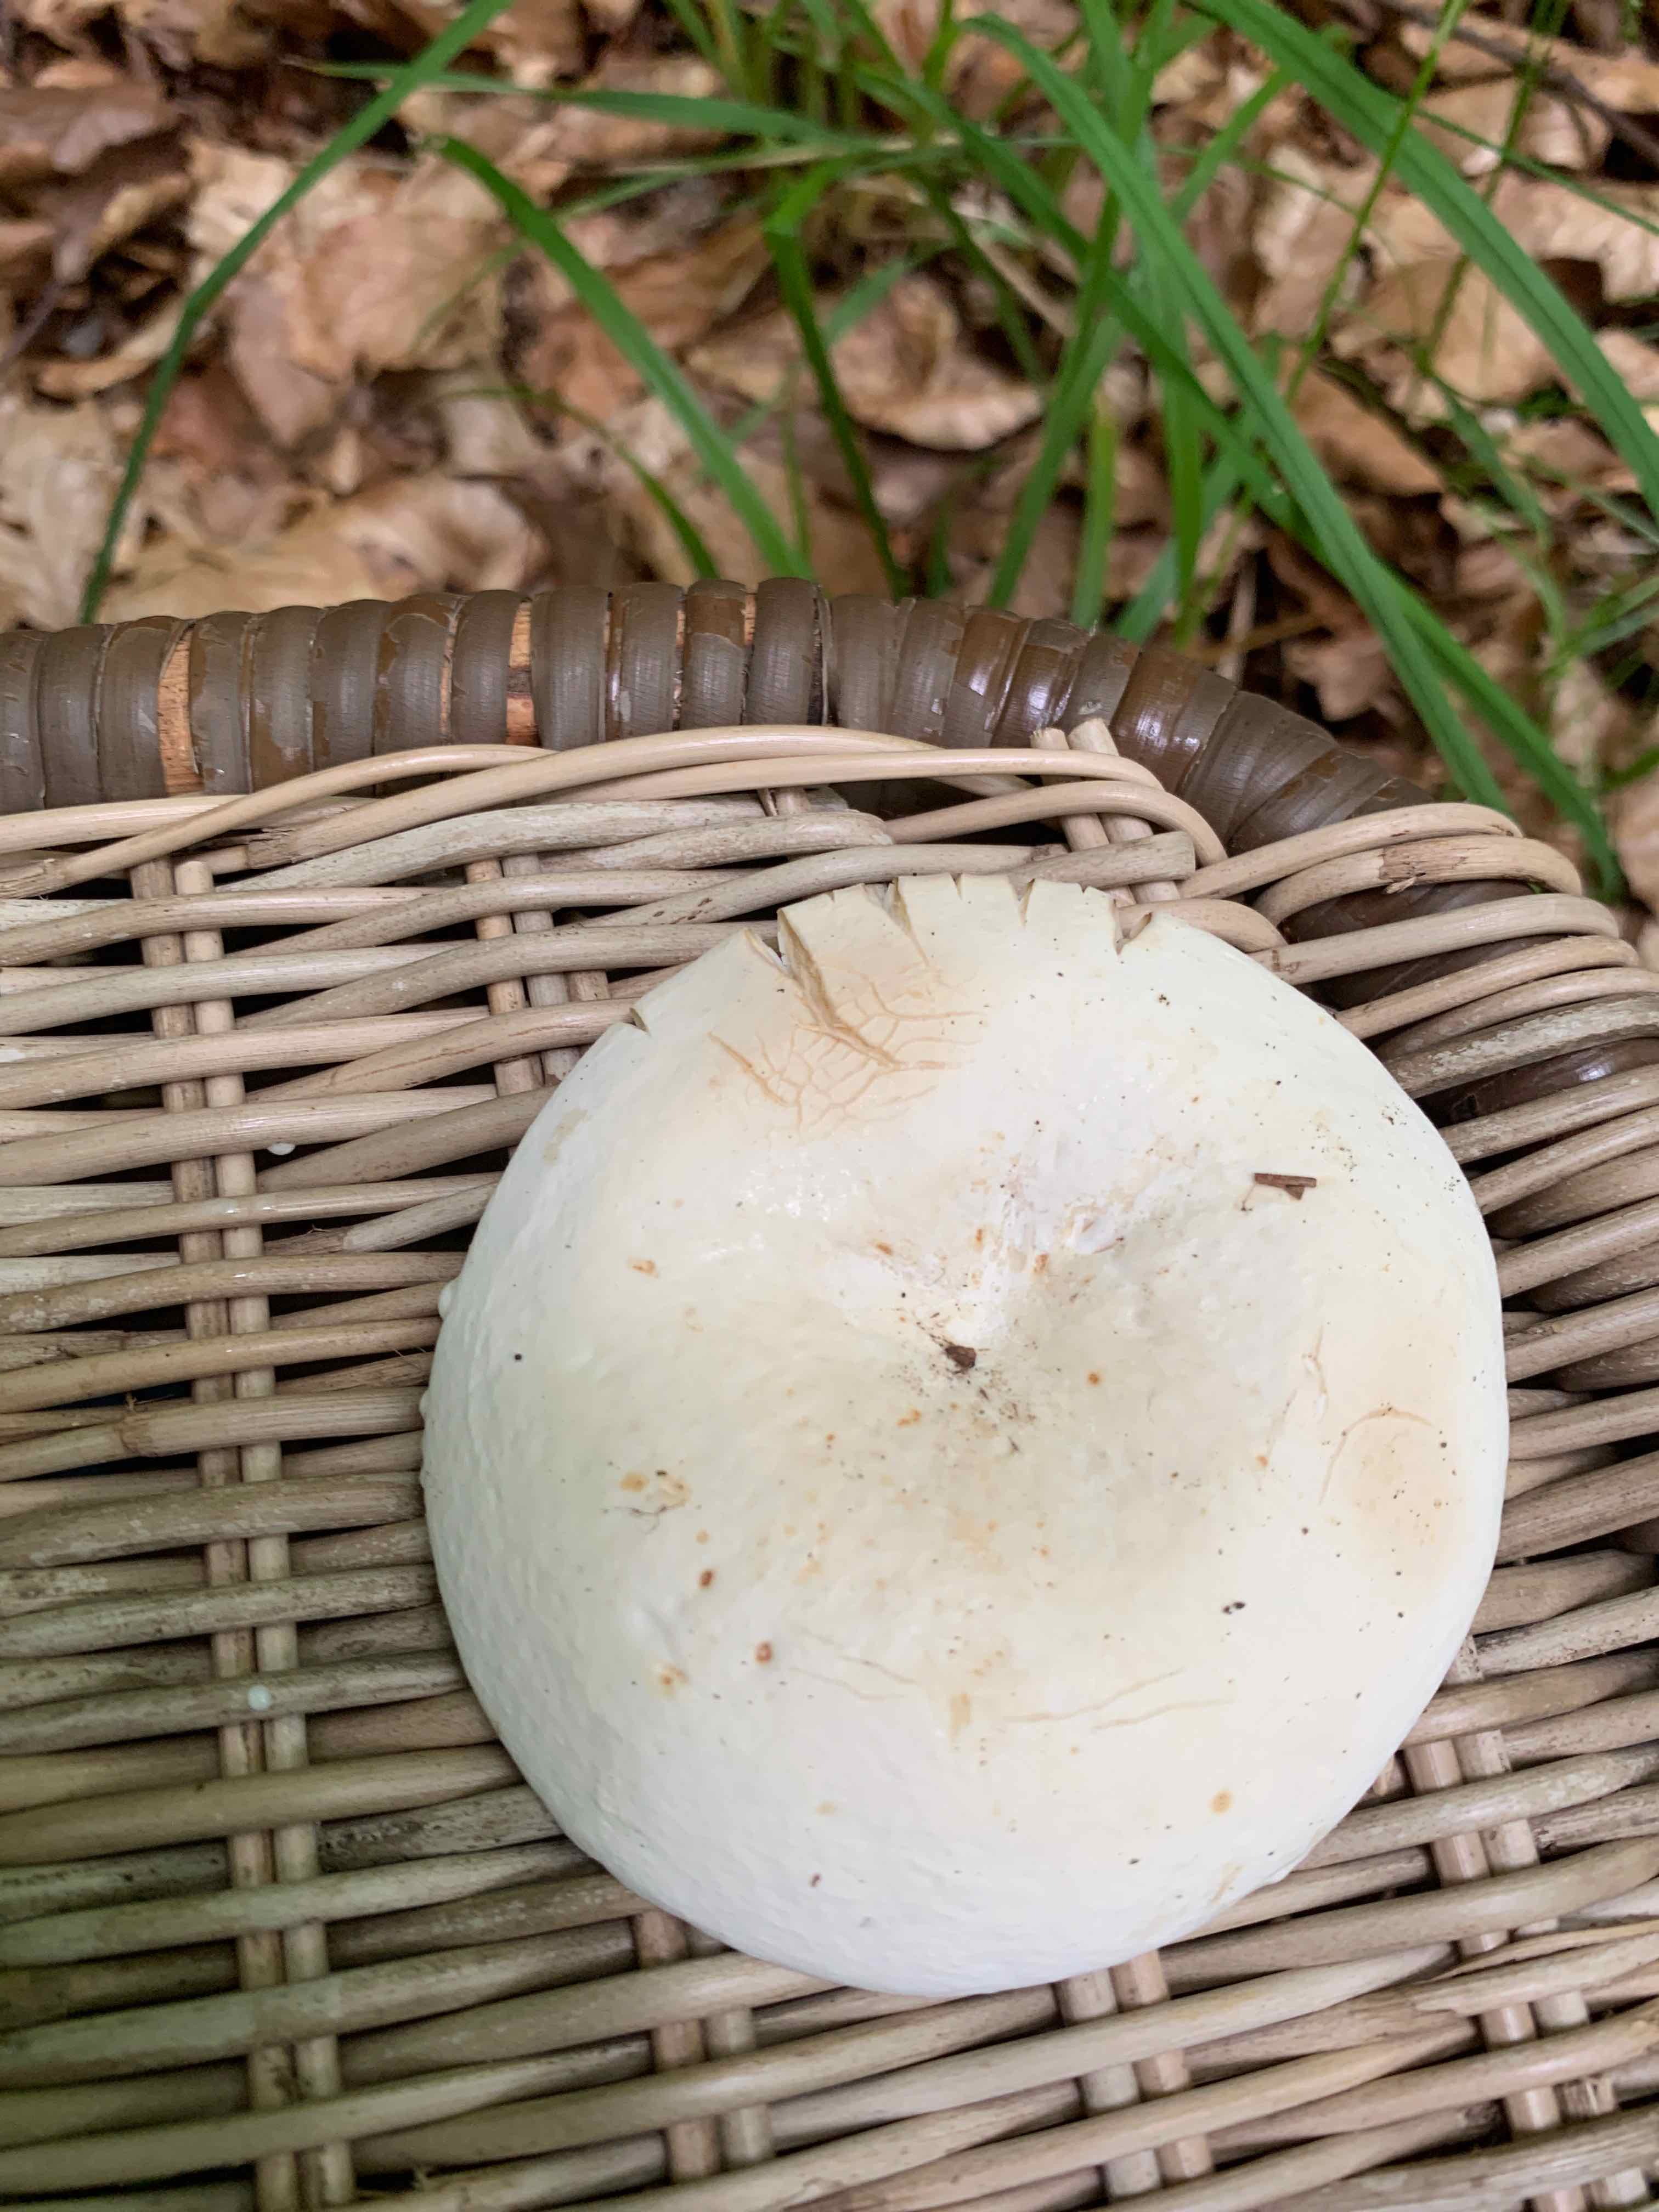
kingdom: Fungi
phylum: Basidiomycota
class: Agaricomycetes
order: Russulales
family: Russulaceae
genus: Lactifluus
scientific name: Lactifluus piperatus
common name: peber-mælkehat
